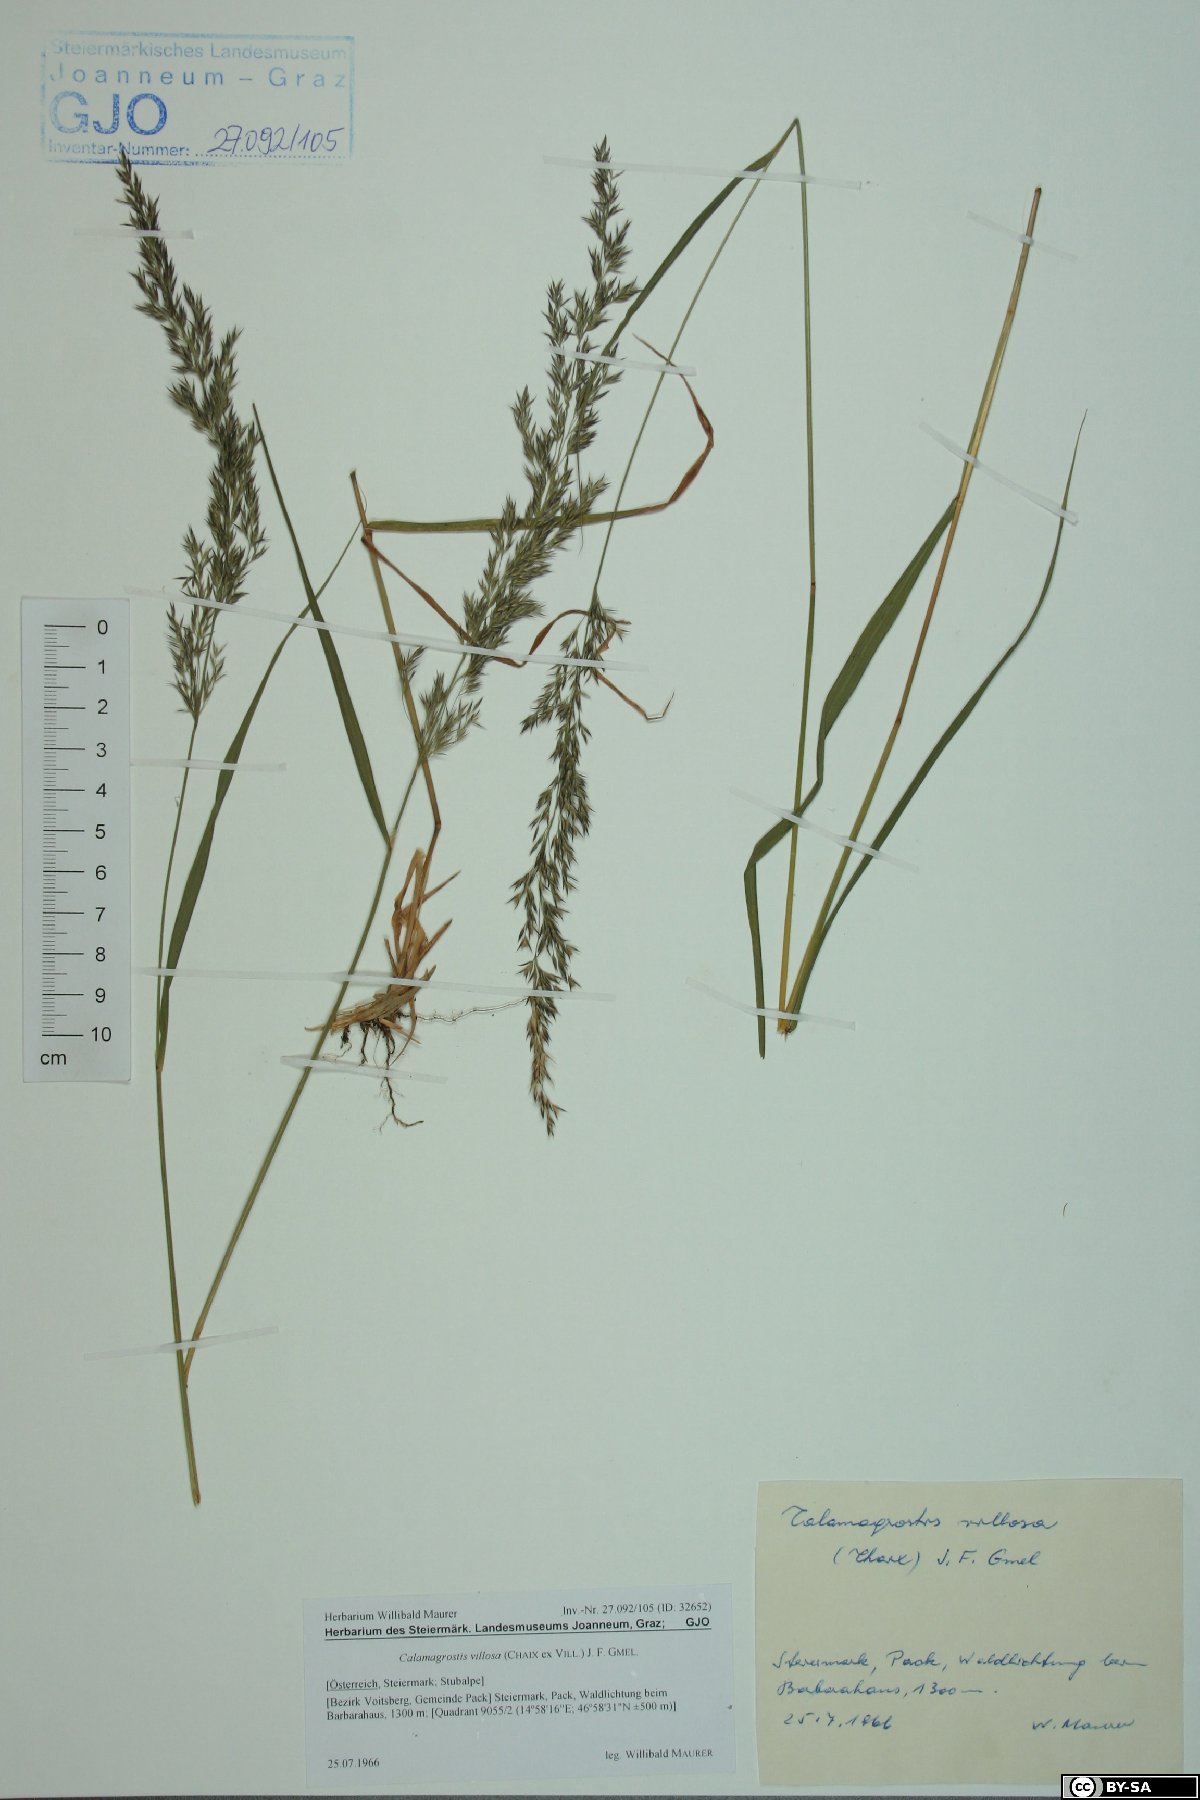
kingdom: Plantae
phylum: Tracheophyta
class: Liliopsida
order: Poales
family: Poaceae
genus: Calamagrostis
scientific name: Calamagrostis villosa
